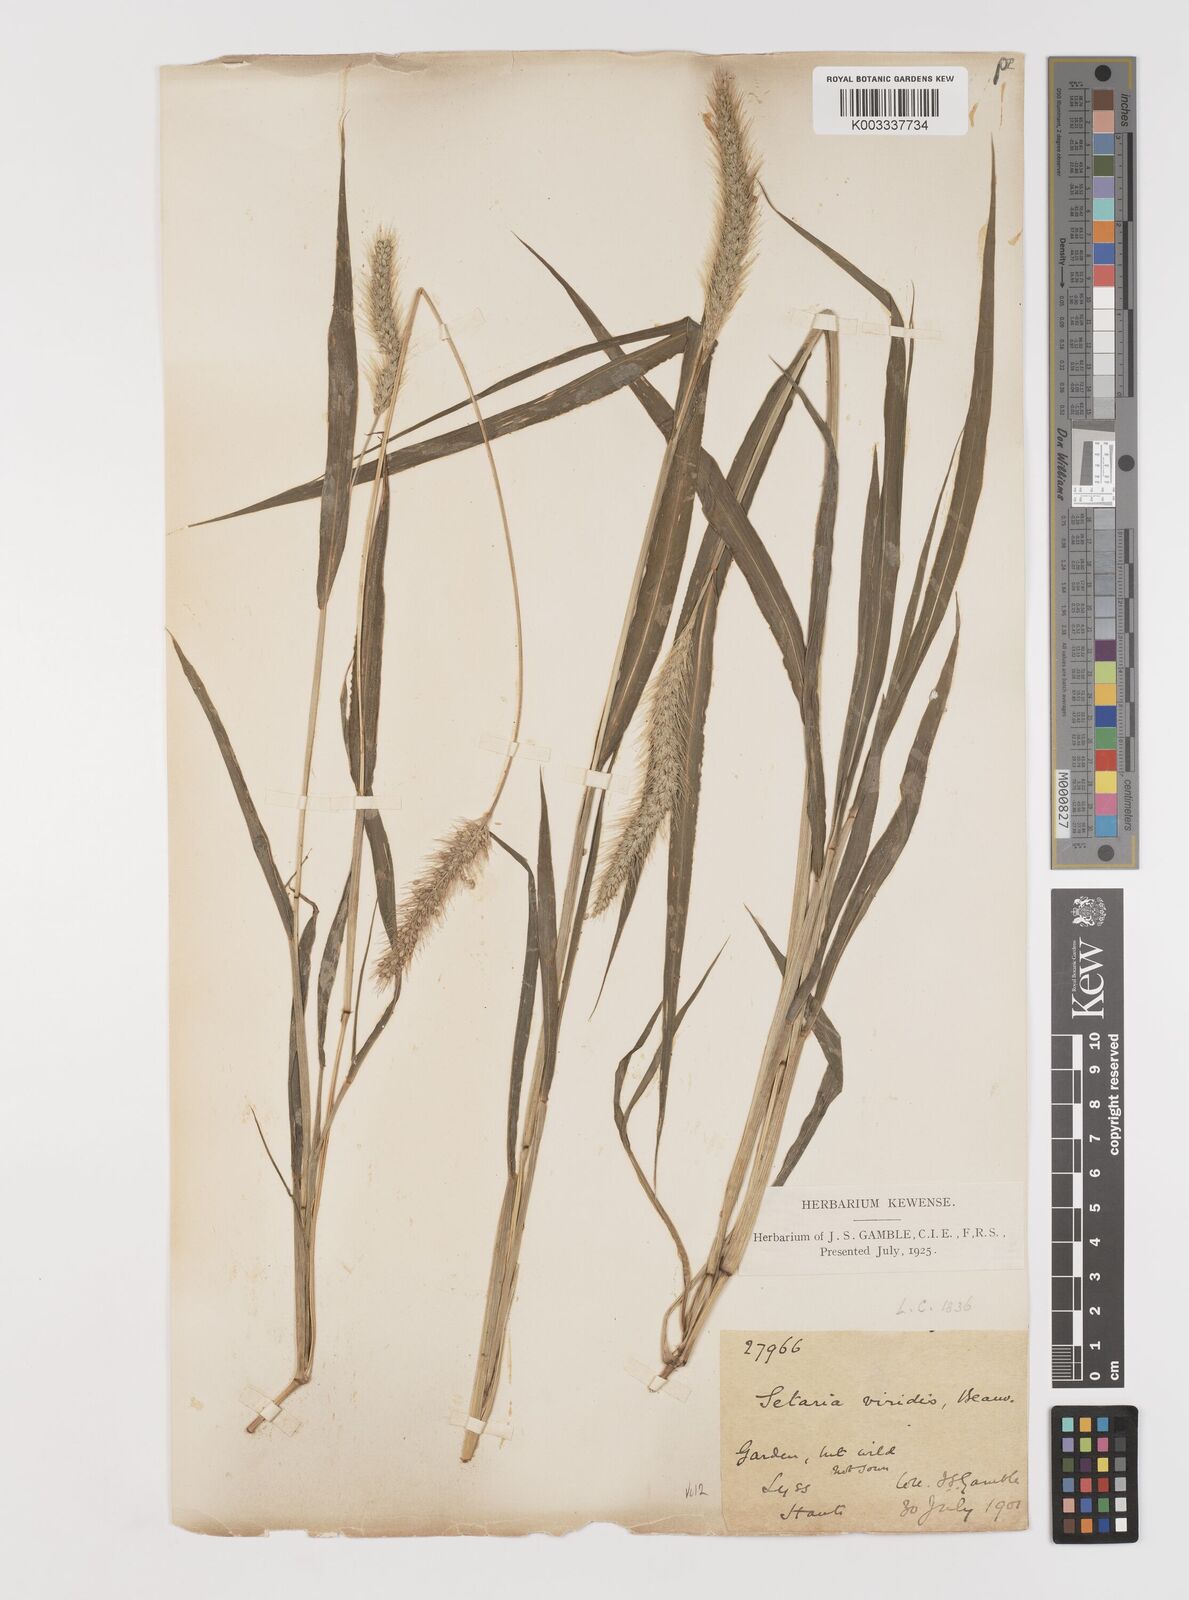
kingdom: Plantae
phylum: Tracheophyta
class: Liliopsida
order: Poales
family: Poaceae
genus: Setaria
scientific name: Setaria viridis
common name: Green bristlegrass
